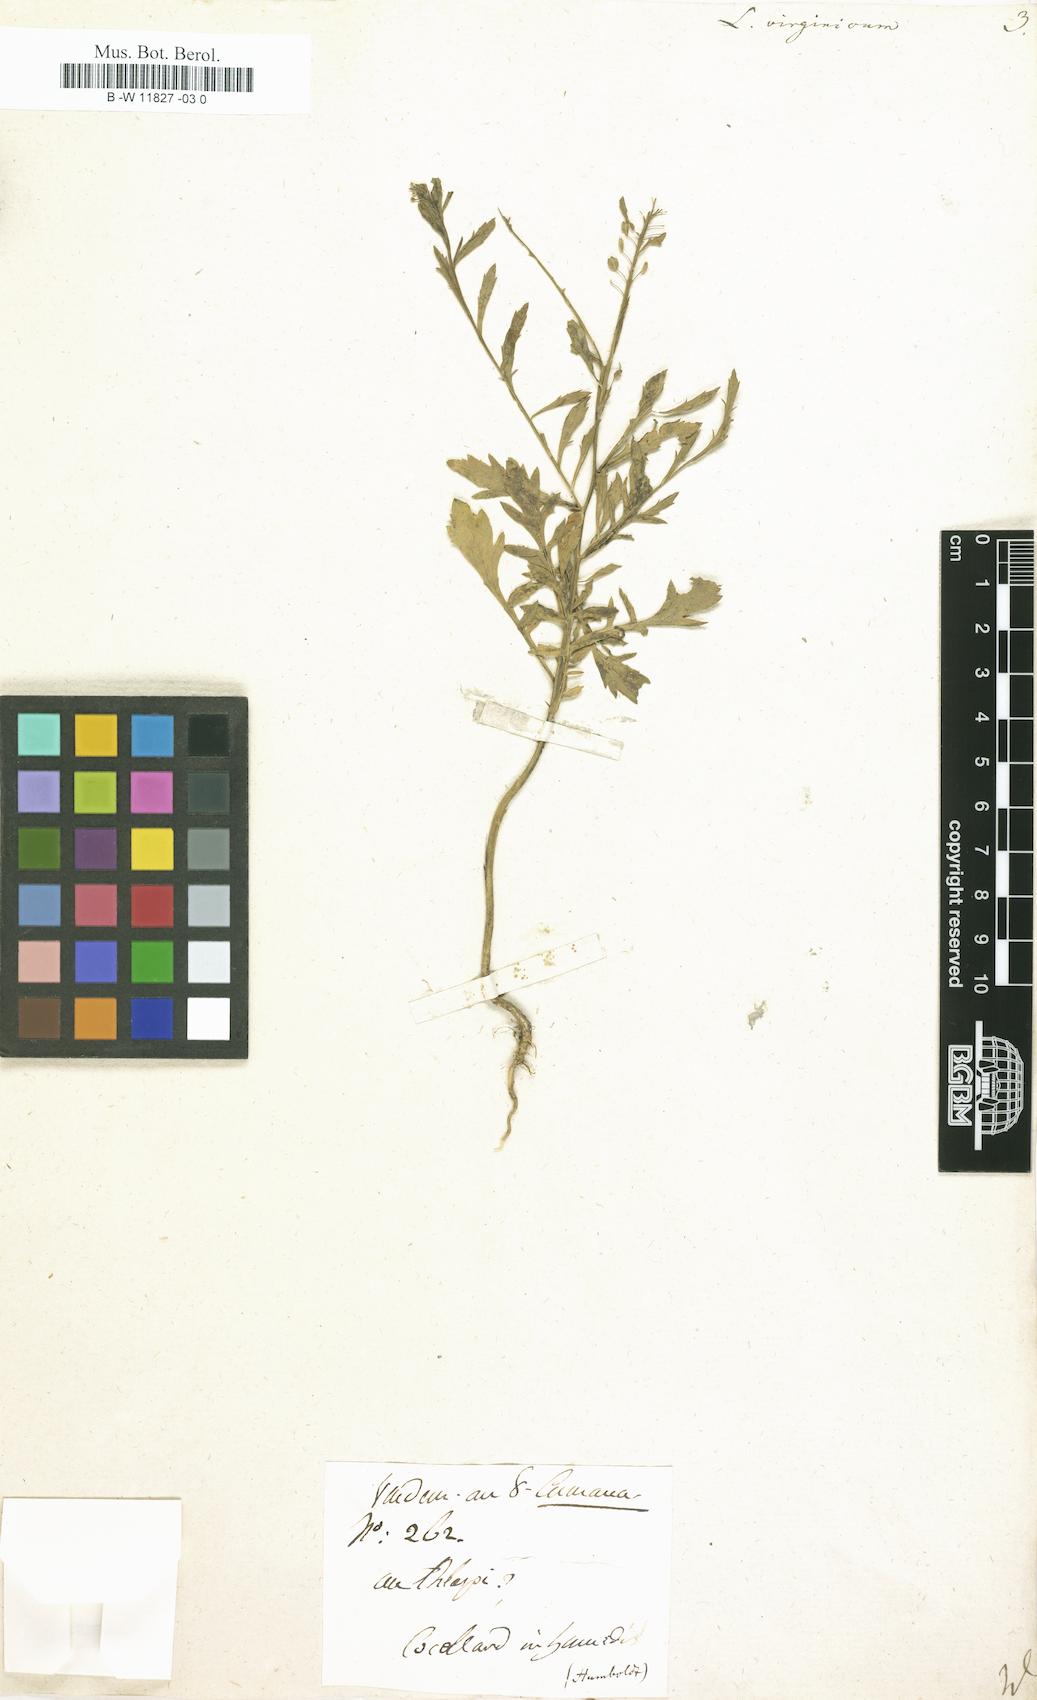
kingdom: Plantae
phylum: Tracheophyta
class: Magnoliopsida
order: Brassicales
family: Brassicaceae
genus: Lepidium
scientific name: Lepidium virginicum
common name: Least pepperwort
